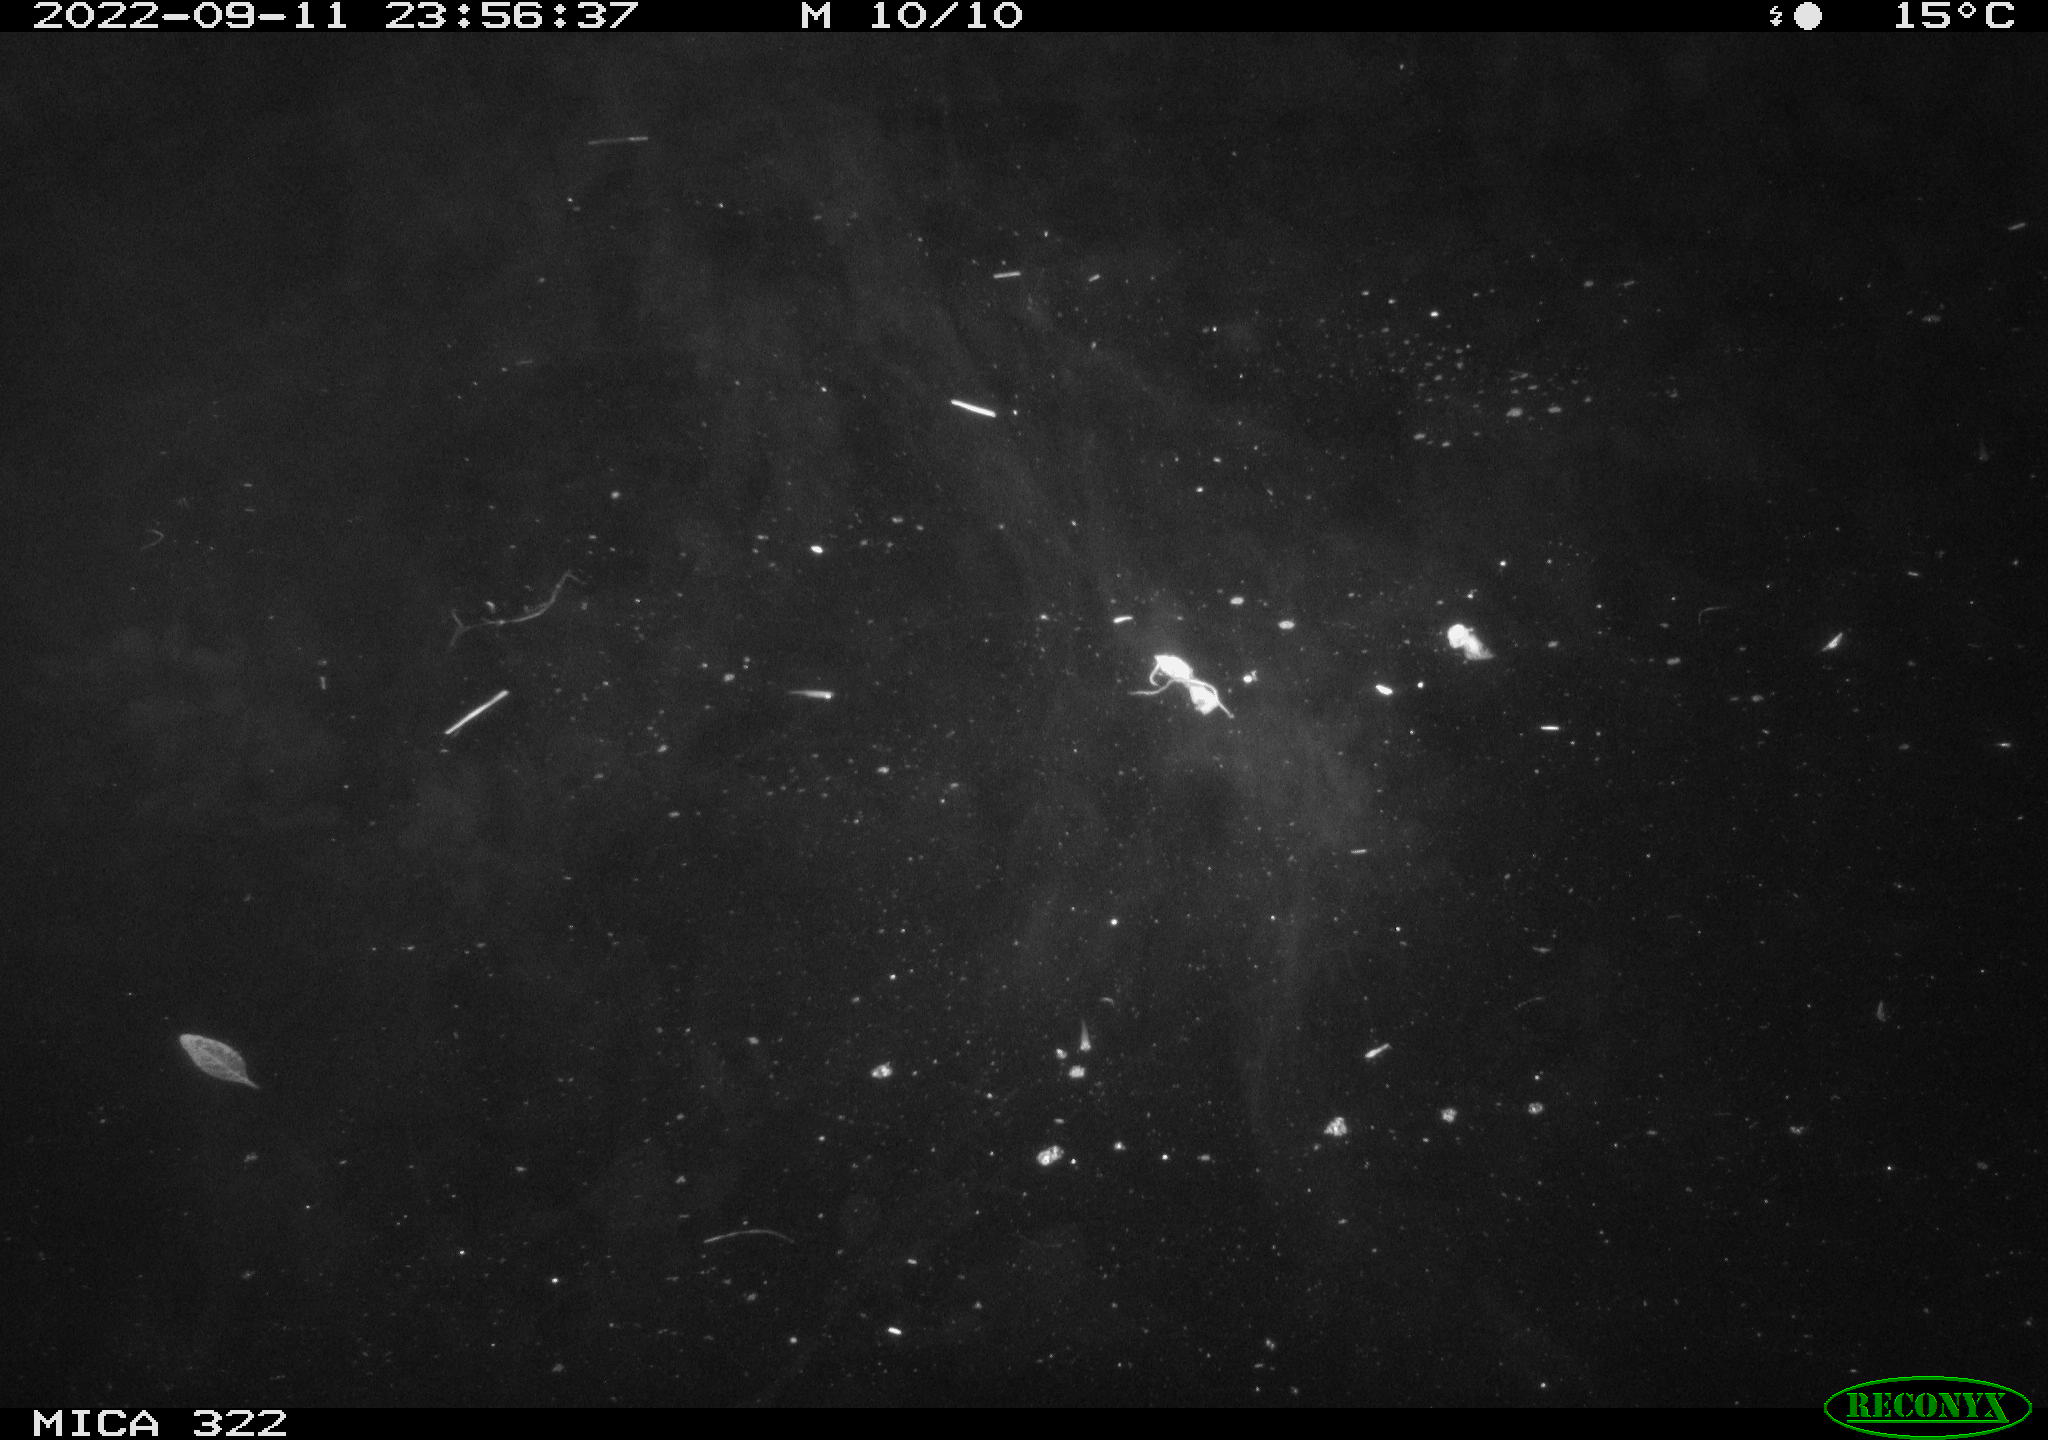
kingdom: Animalia
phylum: Chordata
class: Mammalia
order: Rodentia
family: Muridae
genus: Rattus
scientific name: Rattus norvegicus
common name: Brown rat
